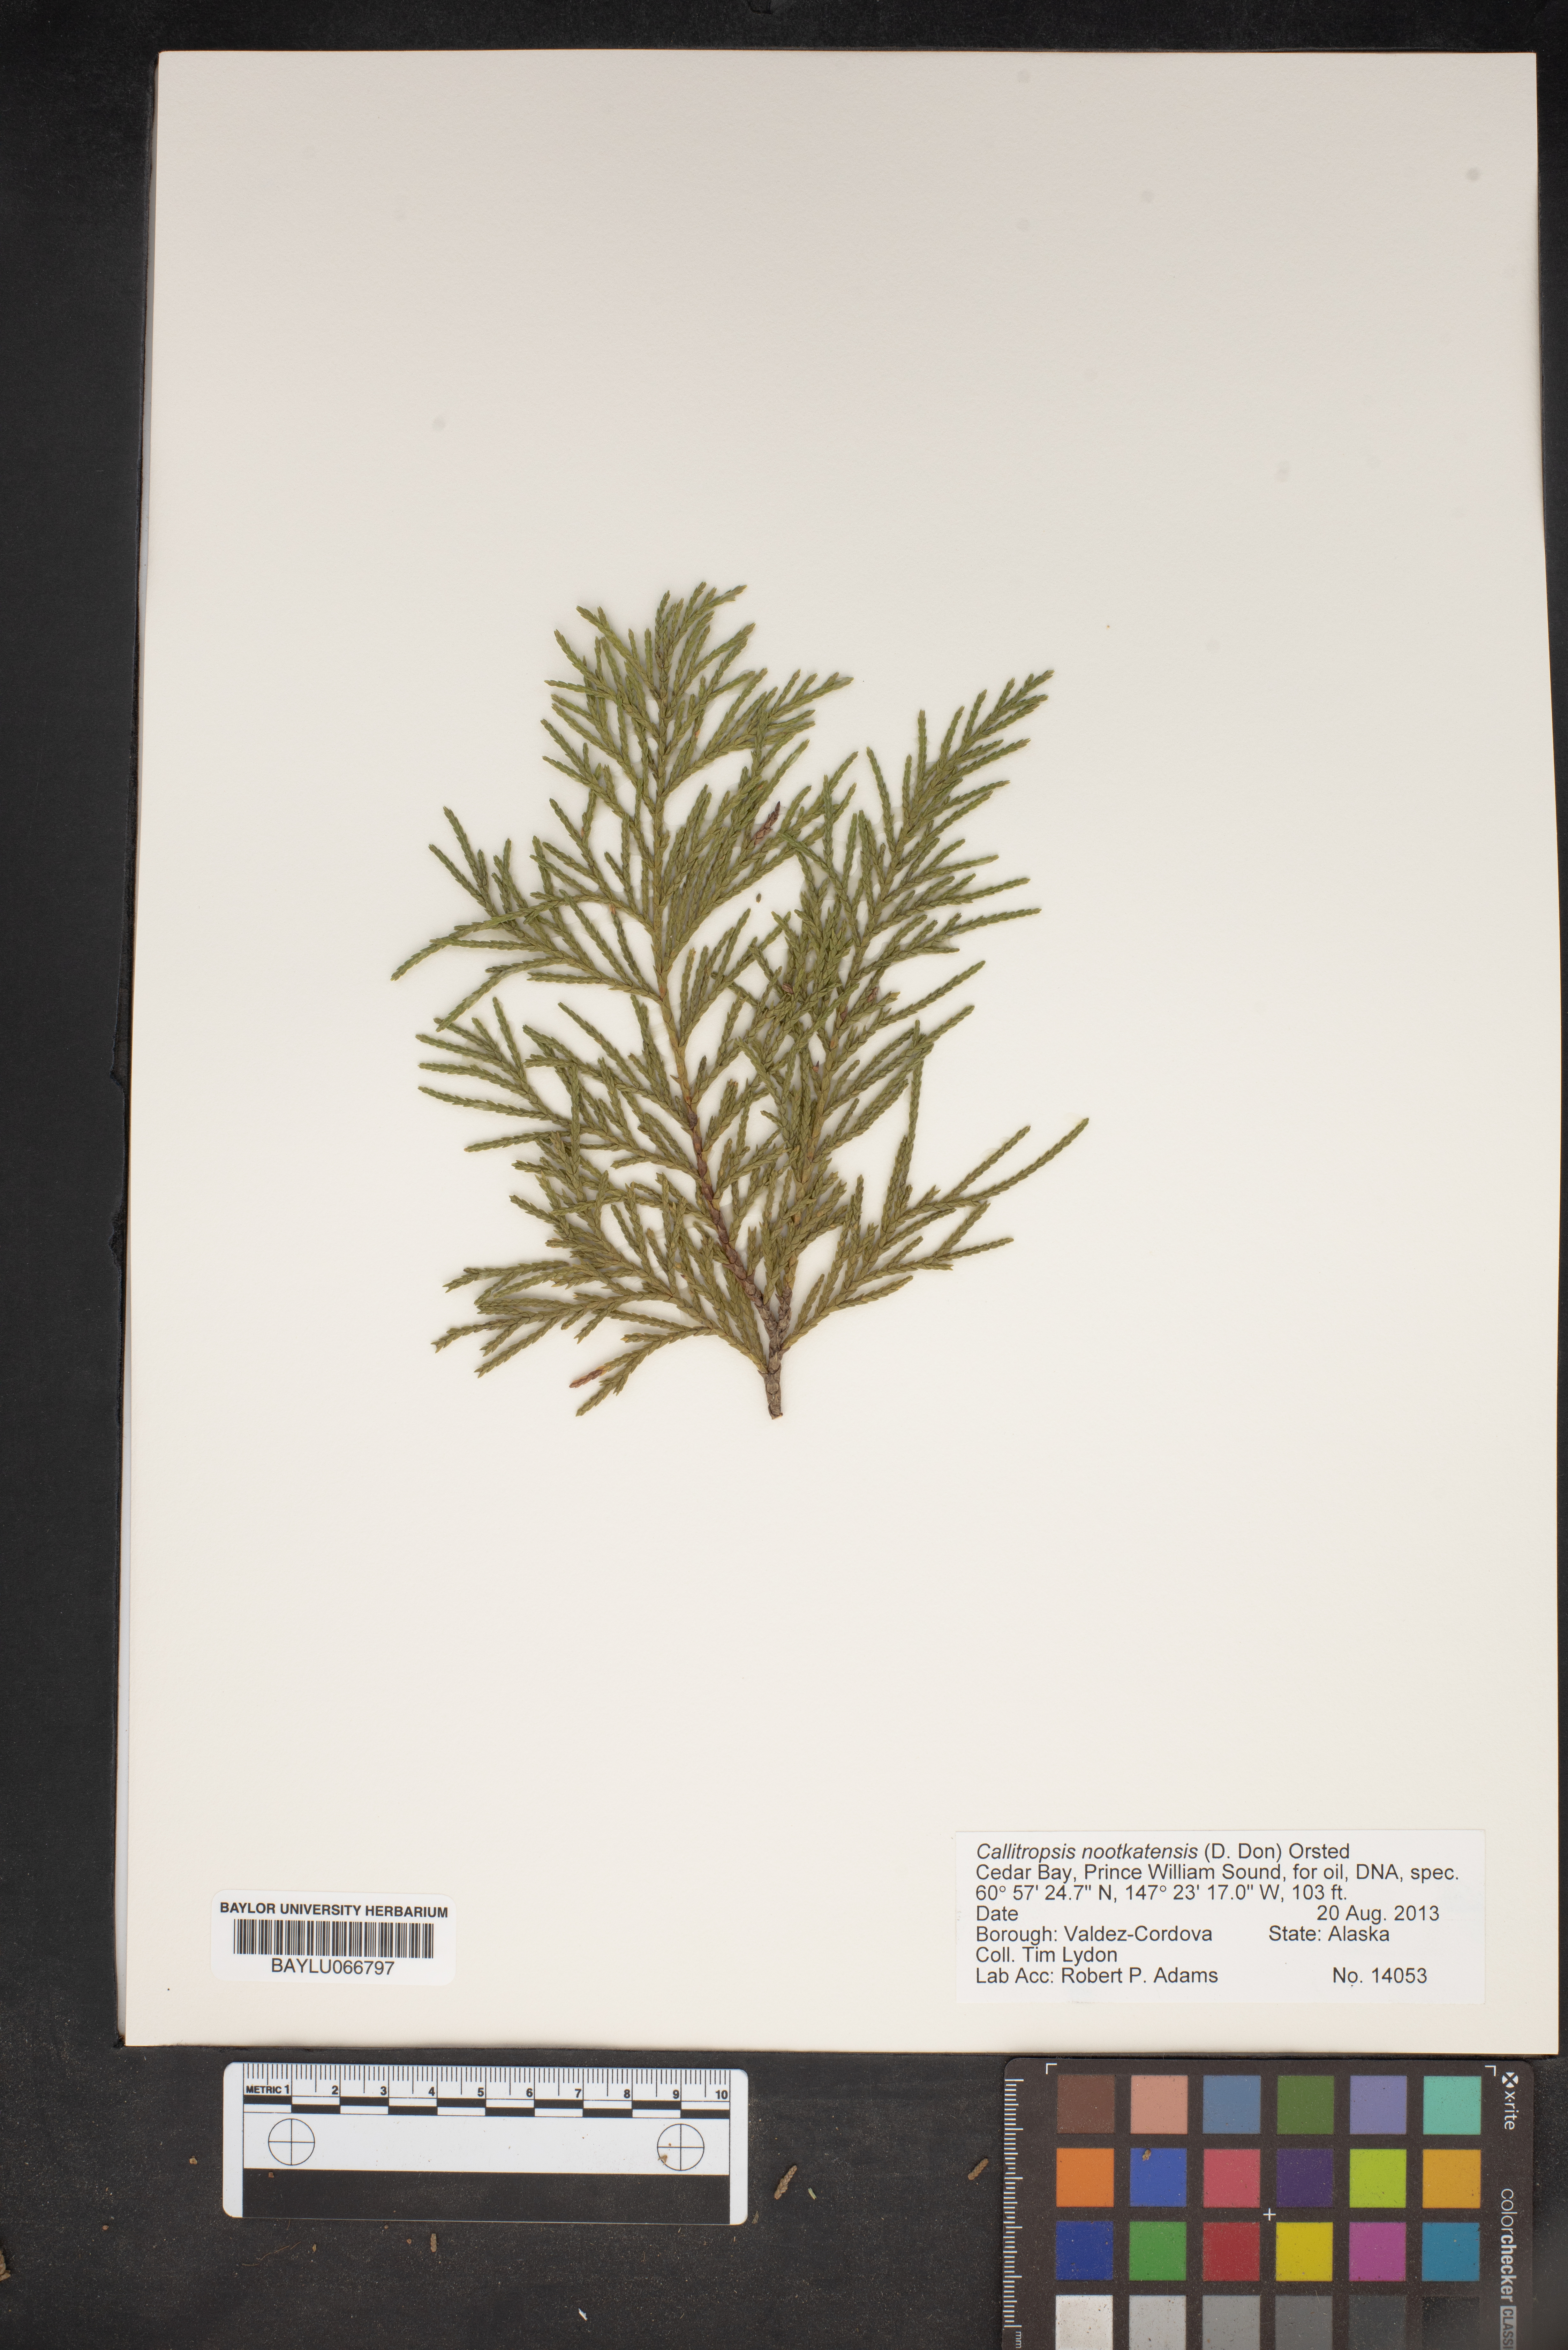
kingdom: Plantae
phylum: Tracheophyta
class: Pinopsida
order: Pinales
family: Cupressaceae
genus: Xanthocyparis
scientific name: Xanthocyparis nootkatensis
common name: Nootka cypress
